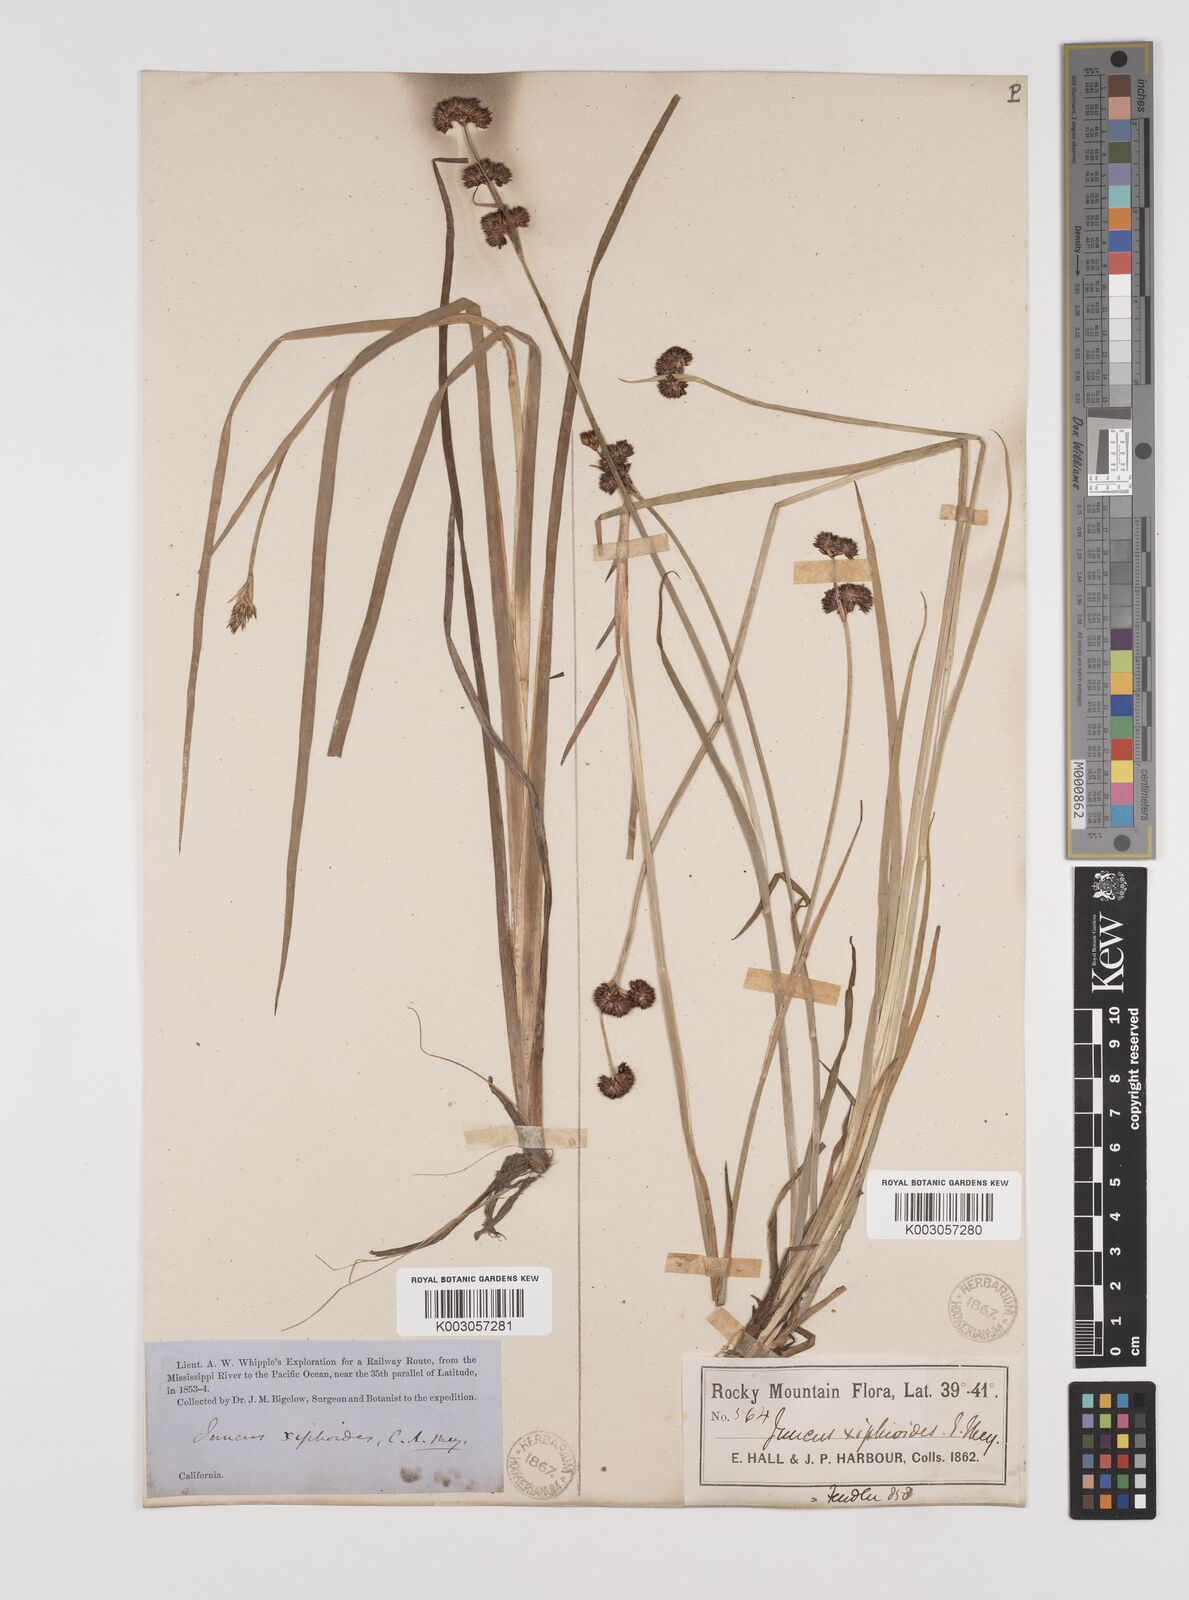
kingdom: Plantae
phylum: Tracheophyta
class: Liliopsida
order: Poales
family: Juncaceae
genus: Juncus
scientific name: Juncus xiphioides
